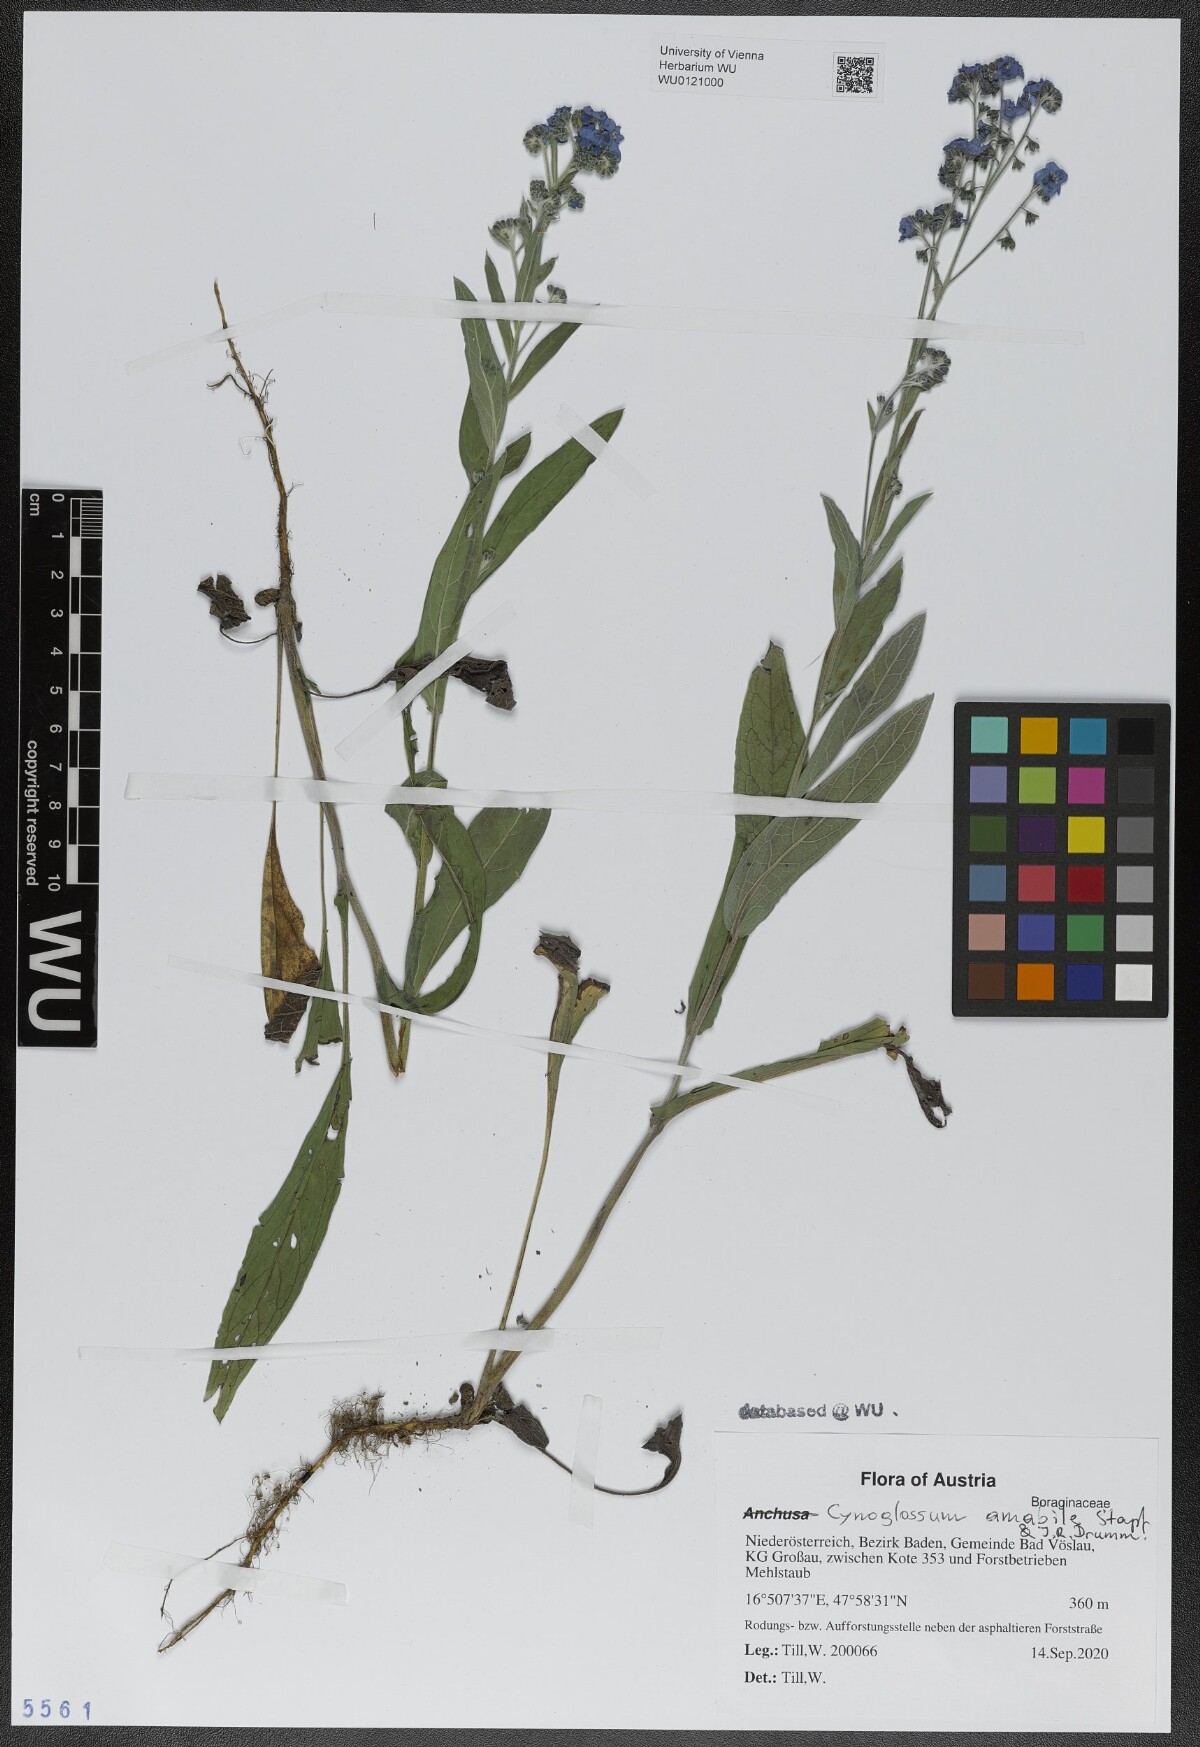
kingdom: Plantae
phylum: Tracheophyta
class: Magnoliopsida
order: Boraginales
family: Boraginaceae
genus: Cynoglossum
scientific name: Cynoglossum amabile
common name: Chinese hound's tongue
